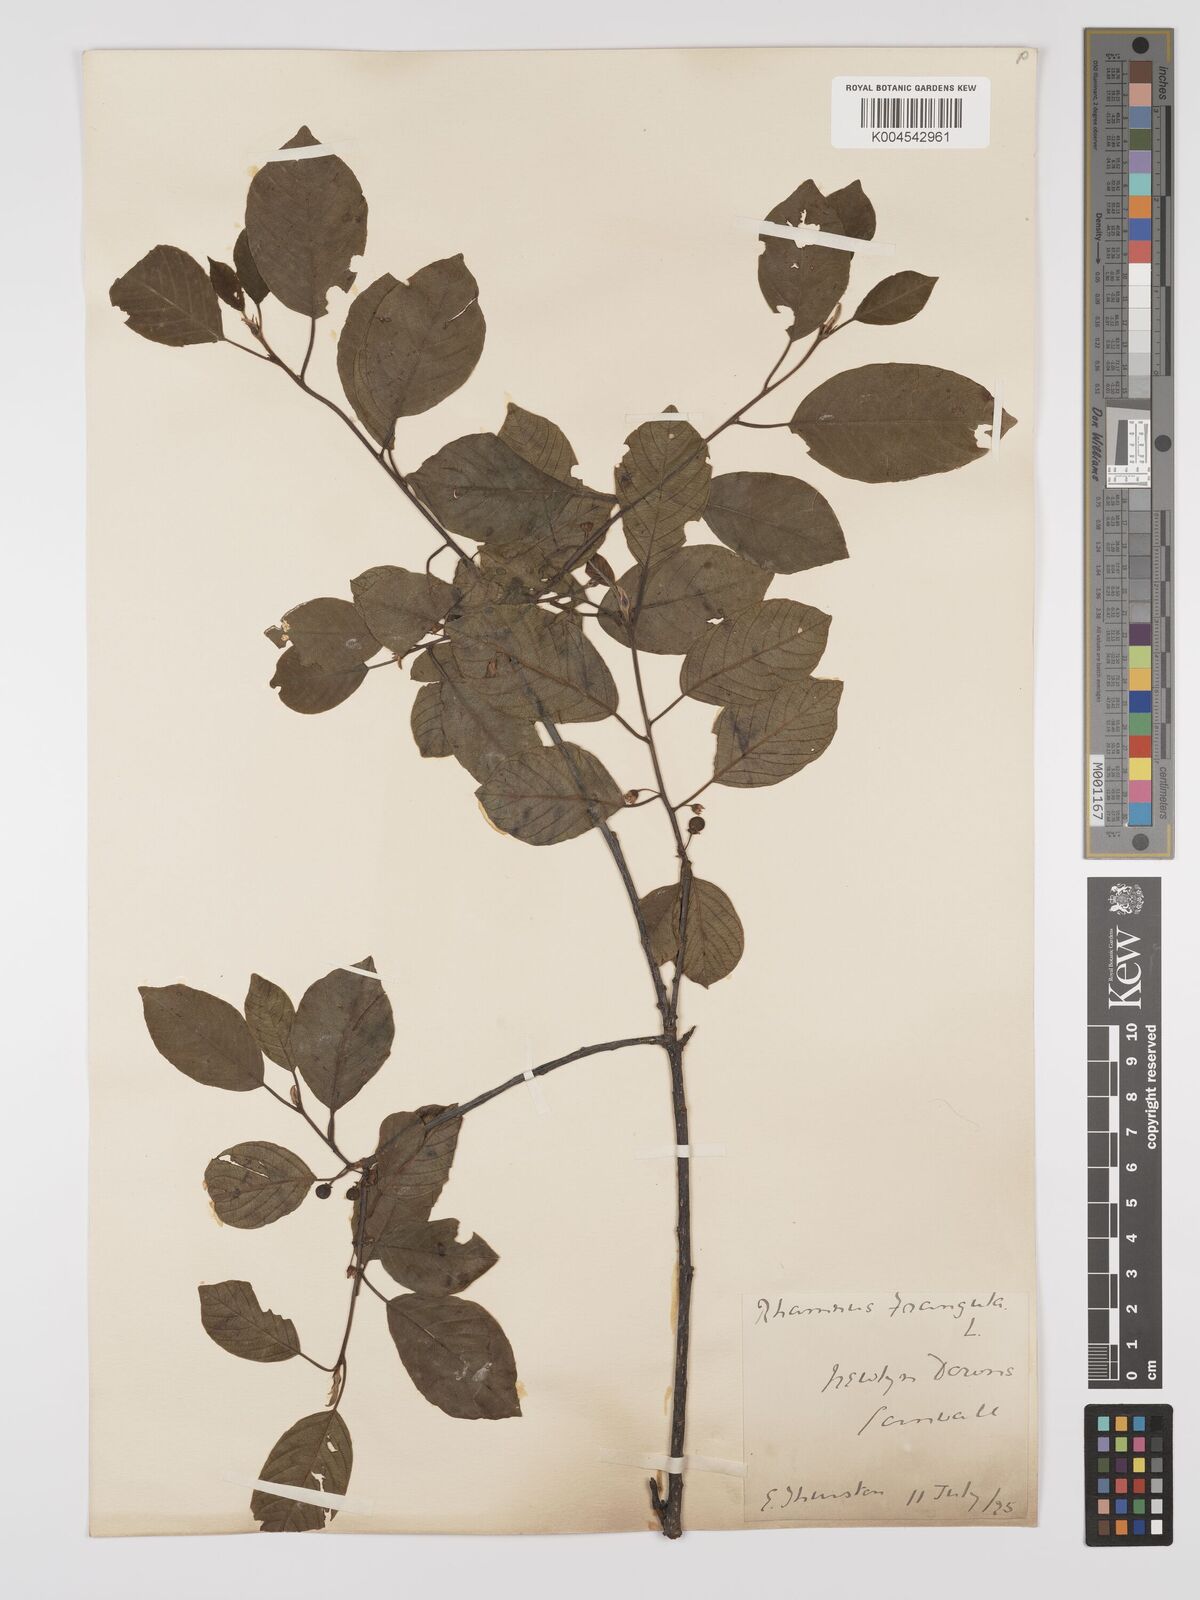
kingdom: Plantae
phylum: Tracheophyta
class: Magnoliopsida
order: Rosales
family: Rhamnaceae
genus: Frangula
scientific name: Frangula alnus
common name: Alder buckthorn
